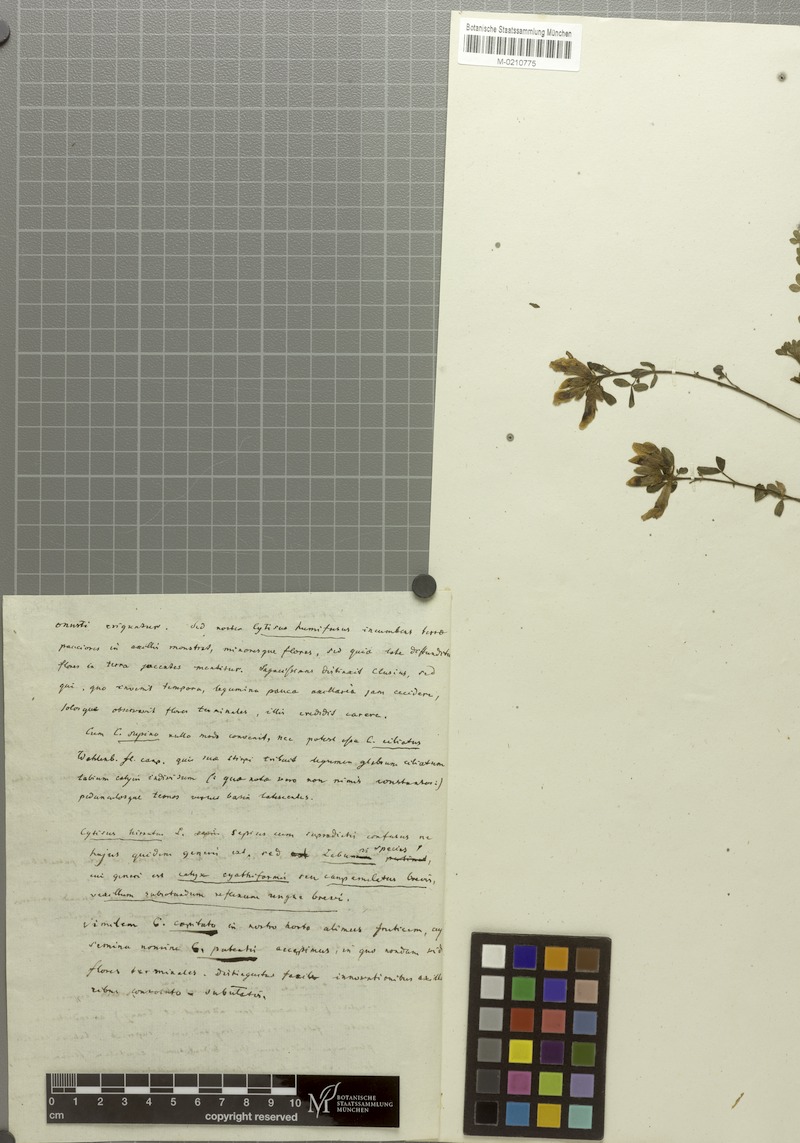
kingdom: Plantae
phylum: Tracheophyta
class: Magnoliopsida
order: Fabales
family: Fabaceae
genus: Chamaecytisus
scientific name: Chamaecytisus supinus
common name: Clustered broom
